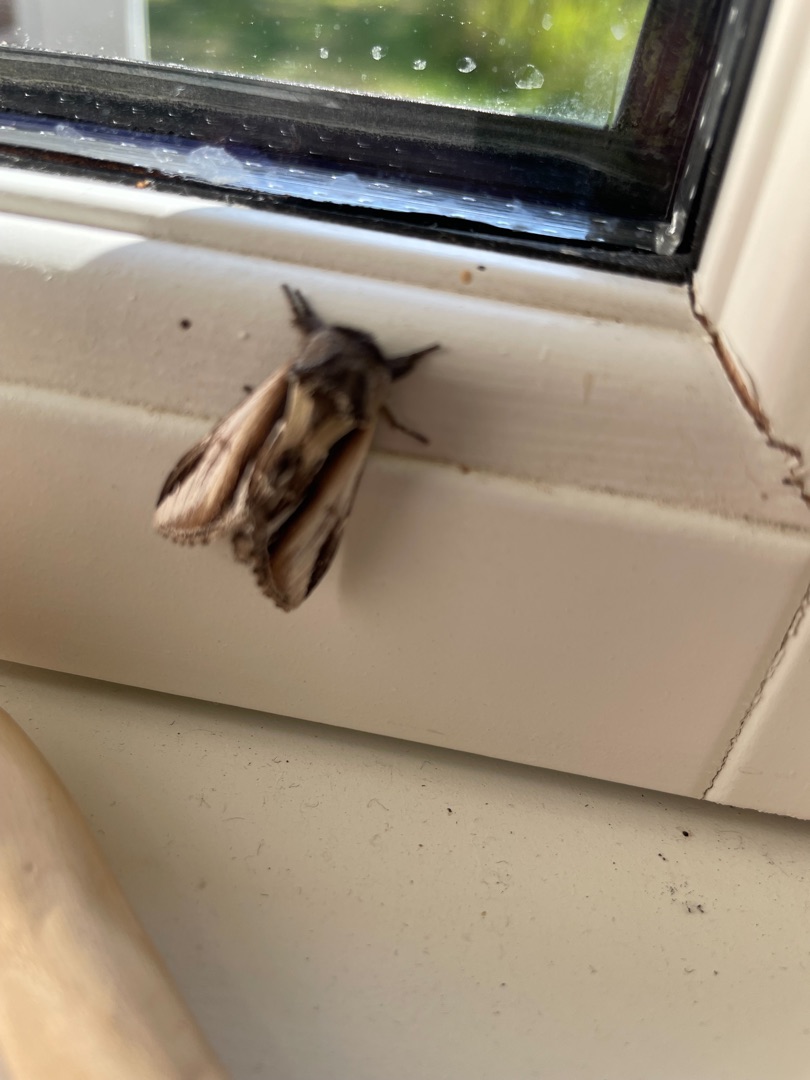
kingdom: Animalia
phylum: Arthropoda
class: Insecta
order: Lepidoptera
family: Notodontidae
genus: Pheosia
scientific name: Pheosia gnoma
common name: Birkeporcelænsspinder
